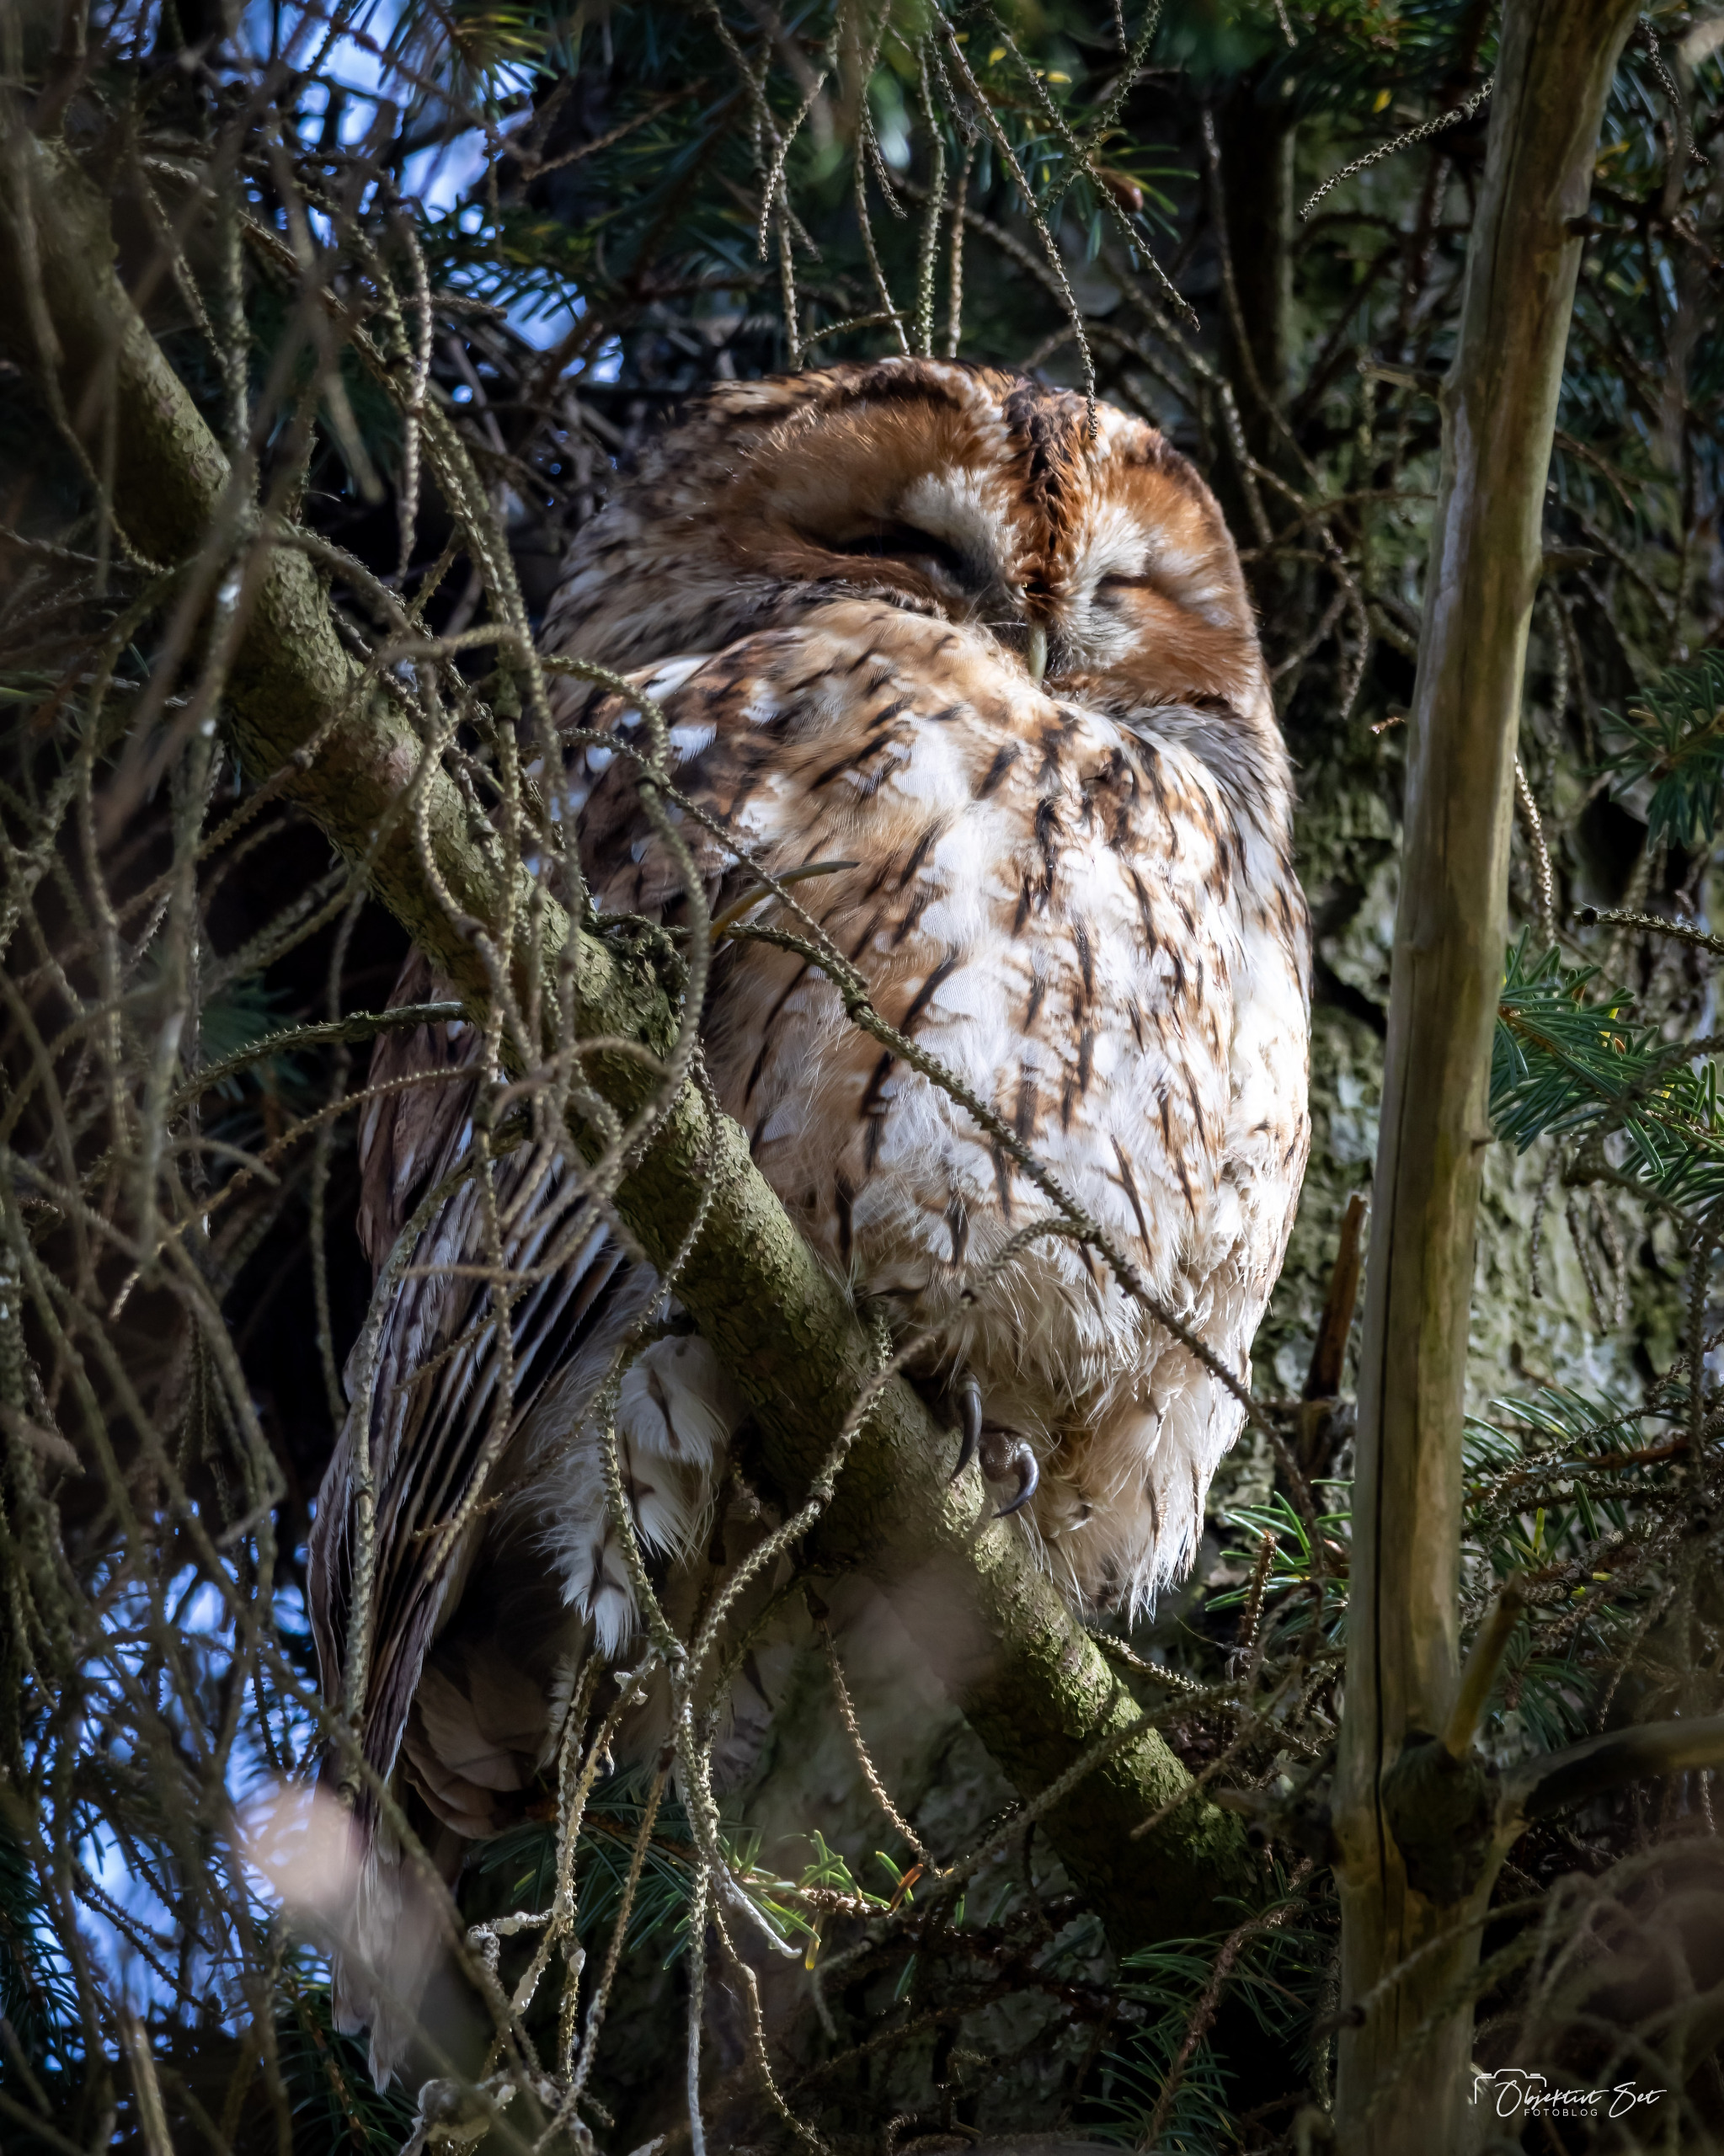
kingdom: Animalia
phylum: Chordata
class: Aves
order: Strigiformes
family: Strigidae
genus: Strix
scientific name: Strix aluco
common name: Natugle
